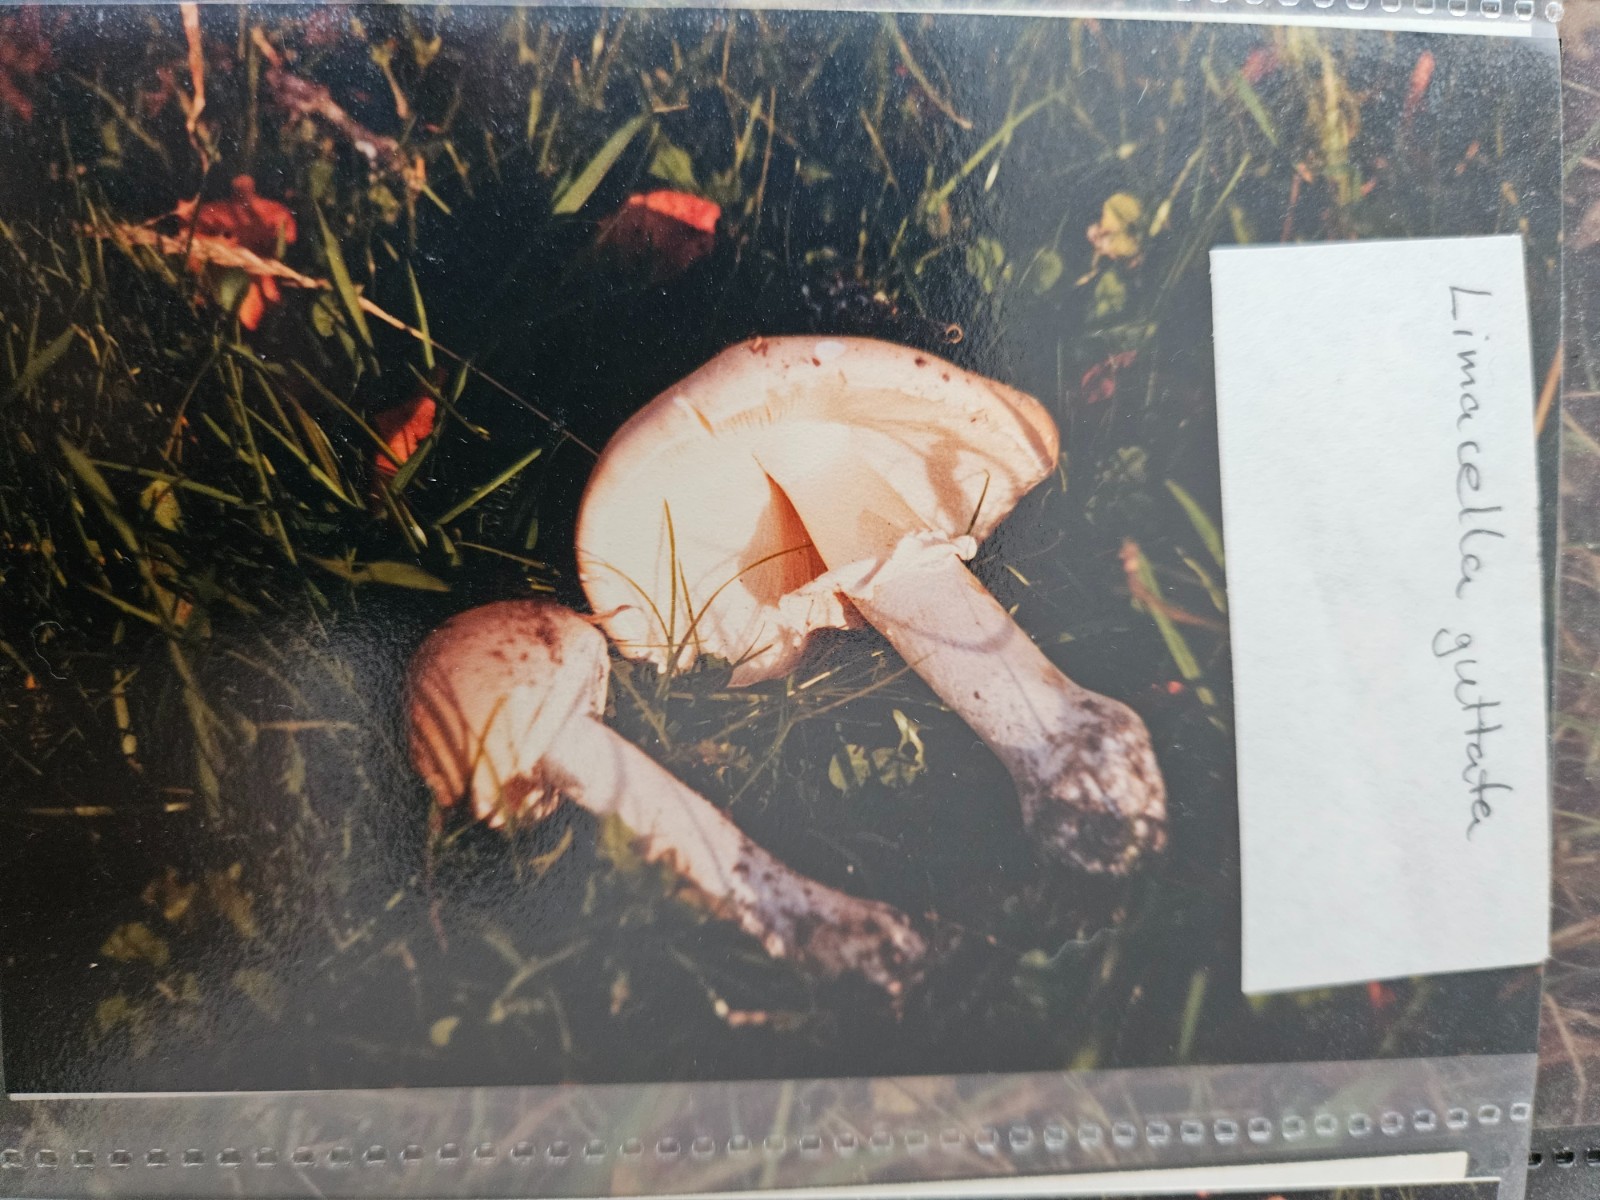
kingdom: Fungi
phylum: Basidiomycota
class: Agaricomycetes
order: Agaricales
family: Amanitaceae
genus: Limacellopsis
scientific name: Limacellopsis guttata
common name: tåre-snekkehat
